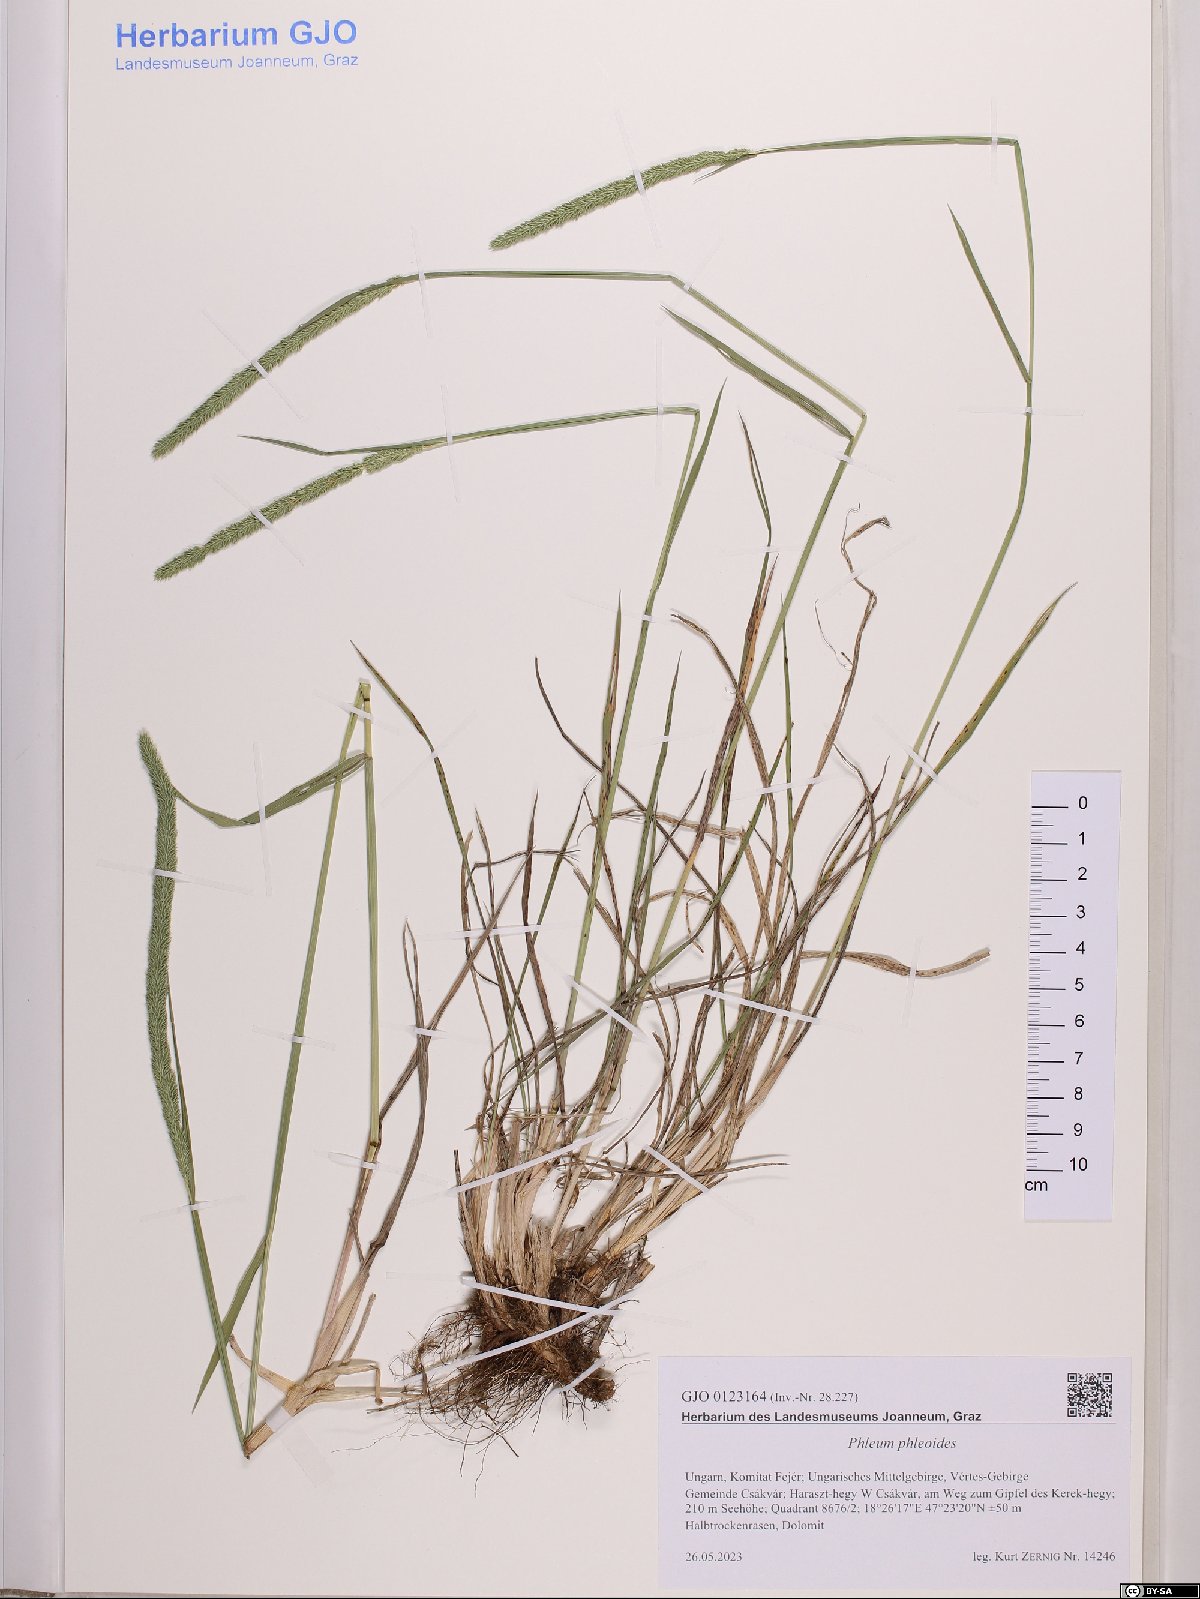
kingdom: Plantae
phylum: Tracheophyta
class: Liliopsida
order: Poales
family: Poaceae
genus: Phleum
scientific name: Phleum phleoides
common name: Purple-stem cat's-tail
